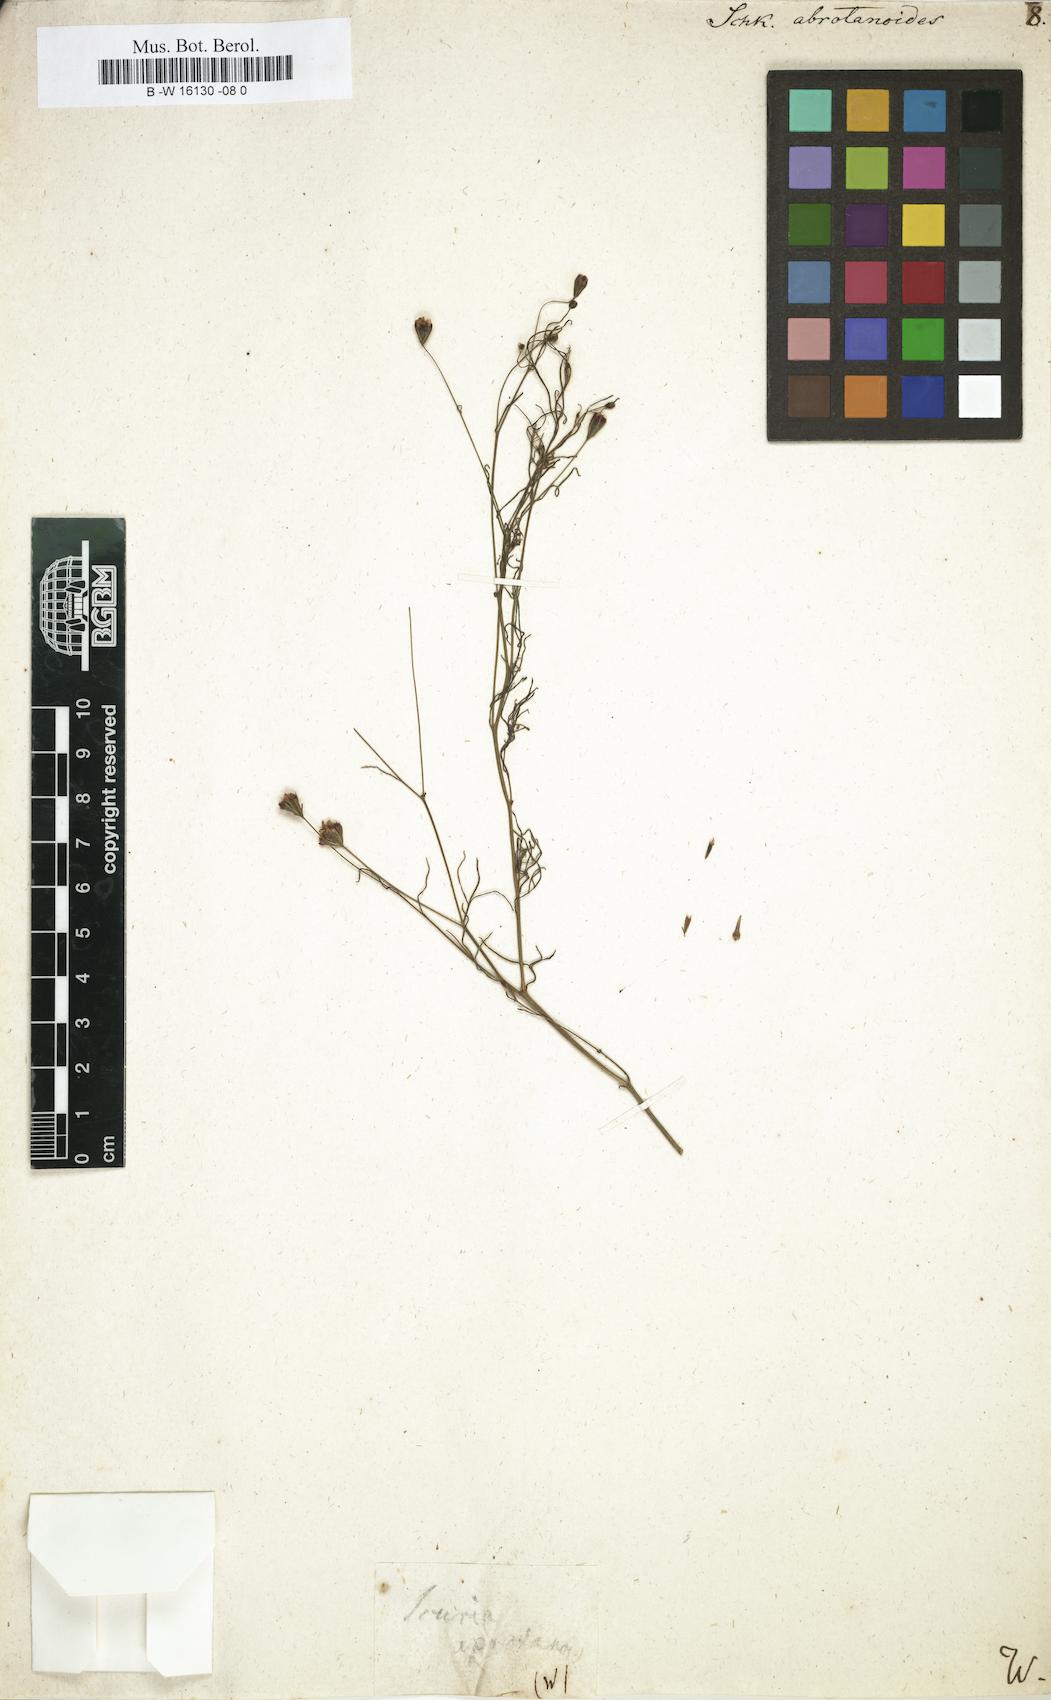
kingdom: Plantae
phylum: Tracheophyta
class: Magnoliopsida
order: Asterales
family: Asteraceae
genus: Schkuhria
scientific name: Schkuhria pinnata
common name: Dwarf marigold
